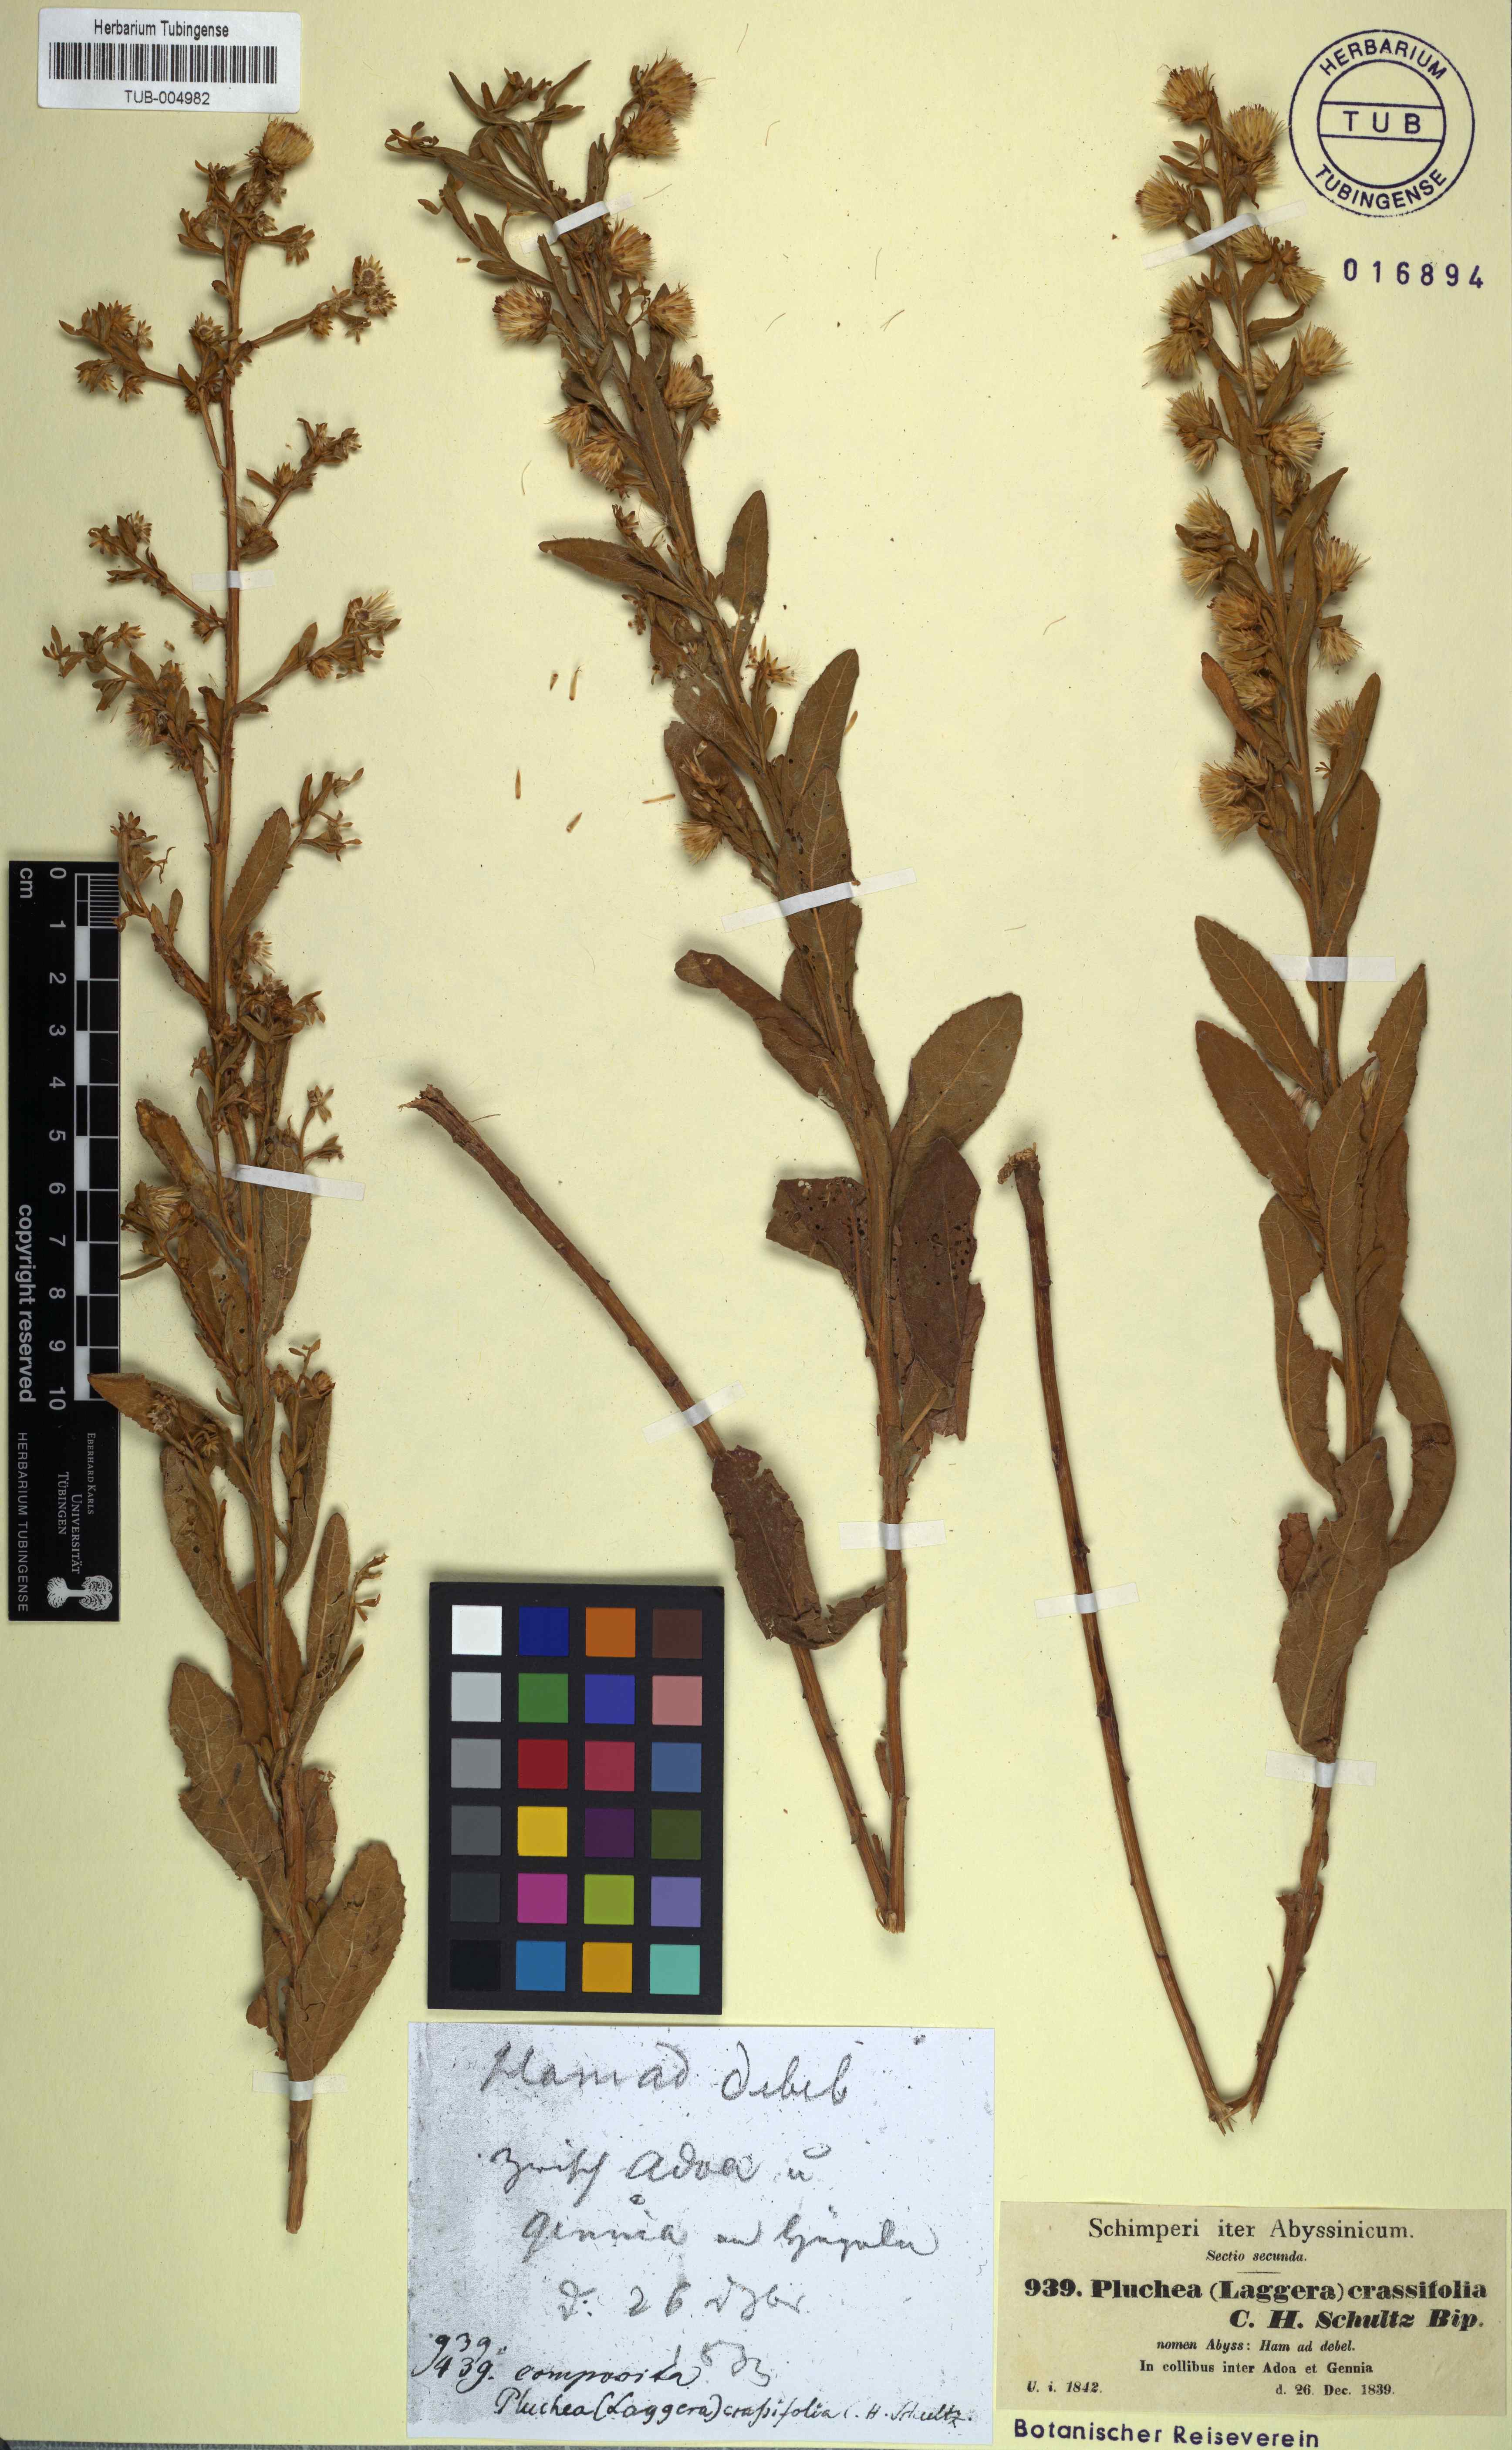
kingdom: Plantae
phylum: Tracheophyta
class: Magnoliopsida
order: Asterales
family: Asteraceae
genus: Laggera
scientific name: Laggera crassifolia
